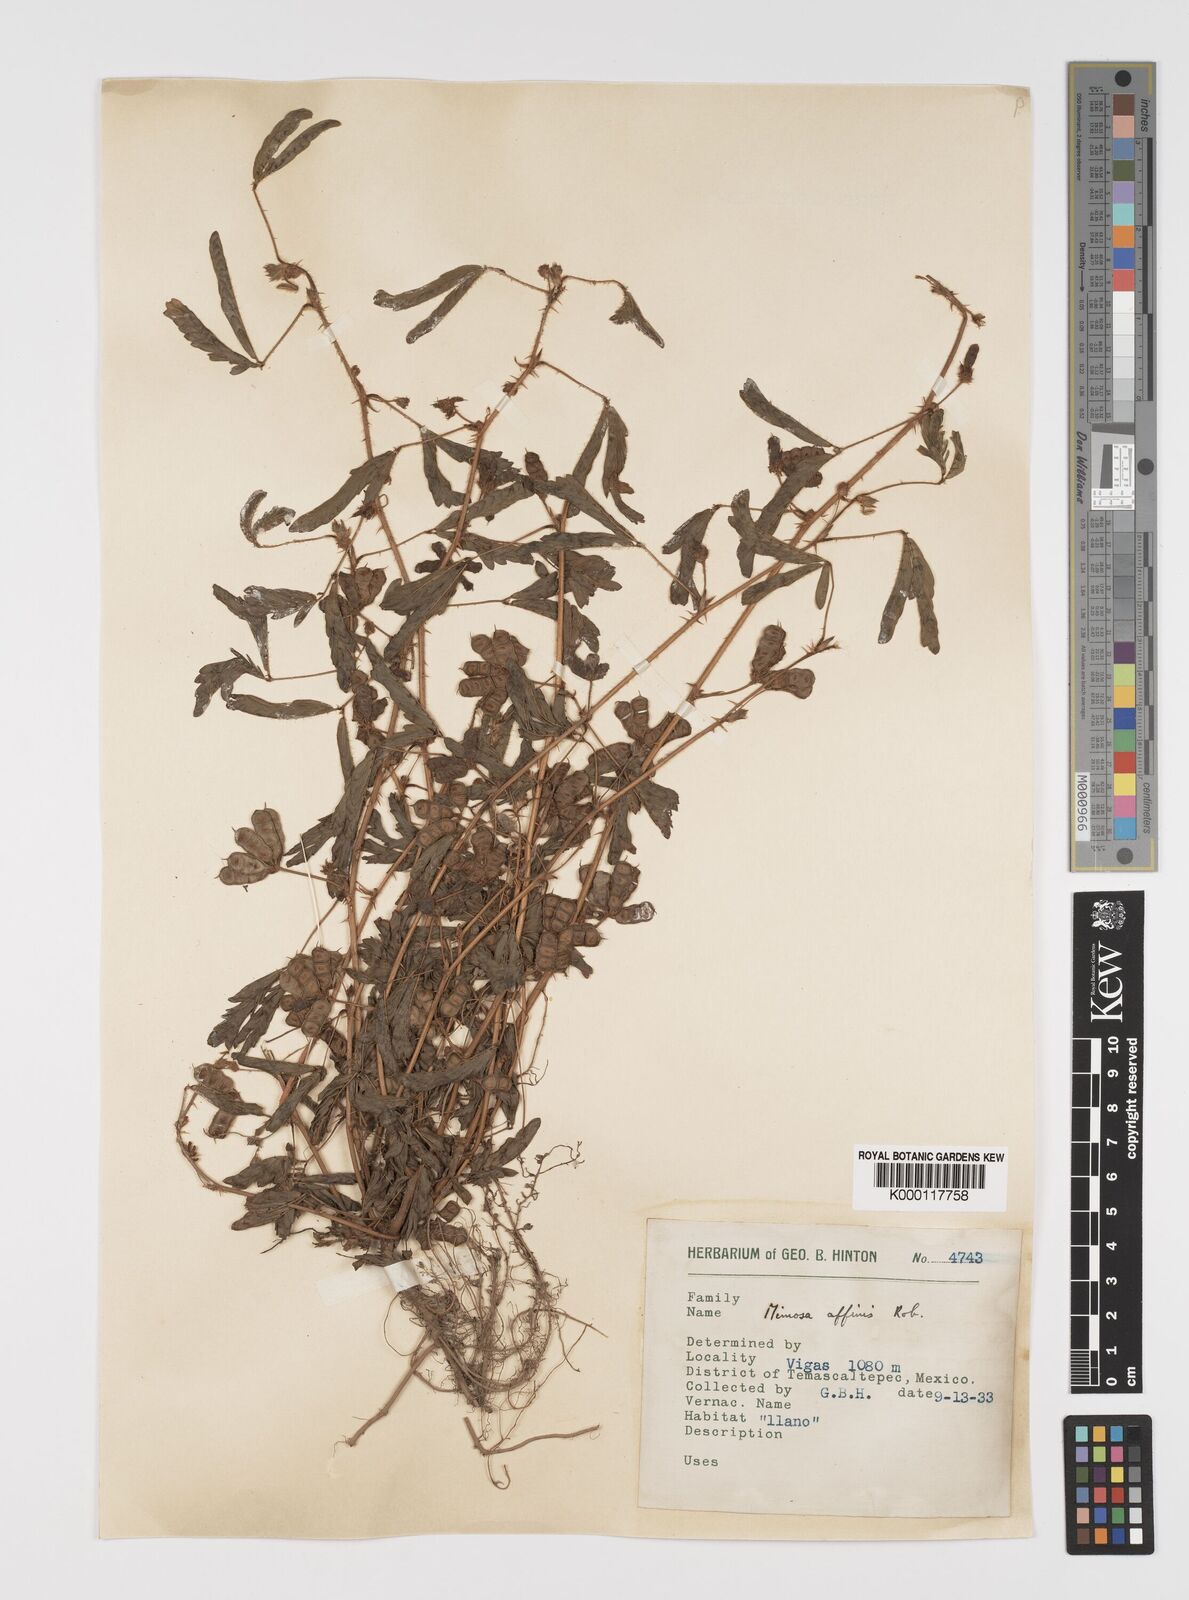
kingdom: Plantae
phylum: Tracheophyta
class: Magnoliopsida
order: Fabales
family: Fabaceae
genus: Mimosa
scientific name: Mimosa affinis
